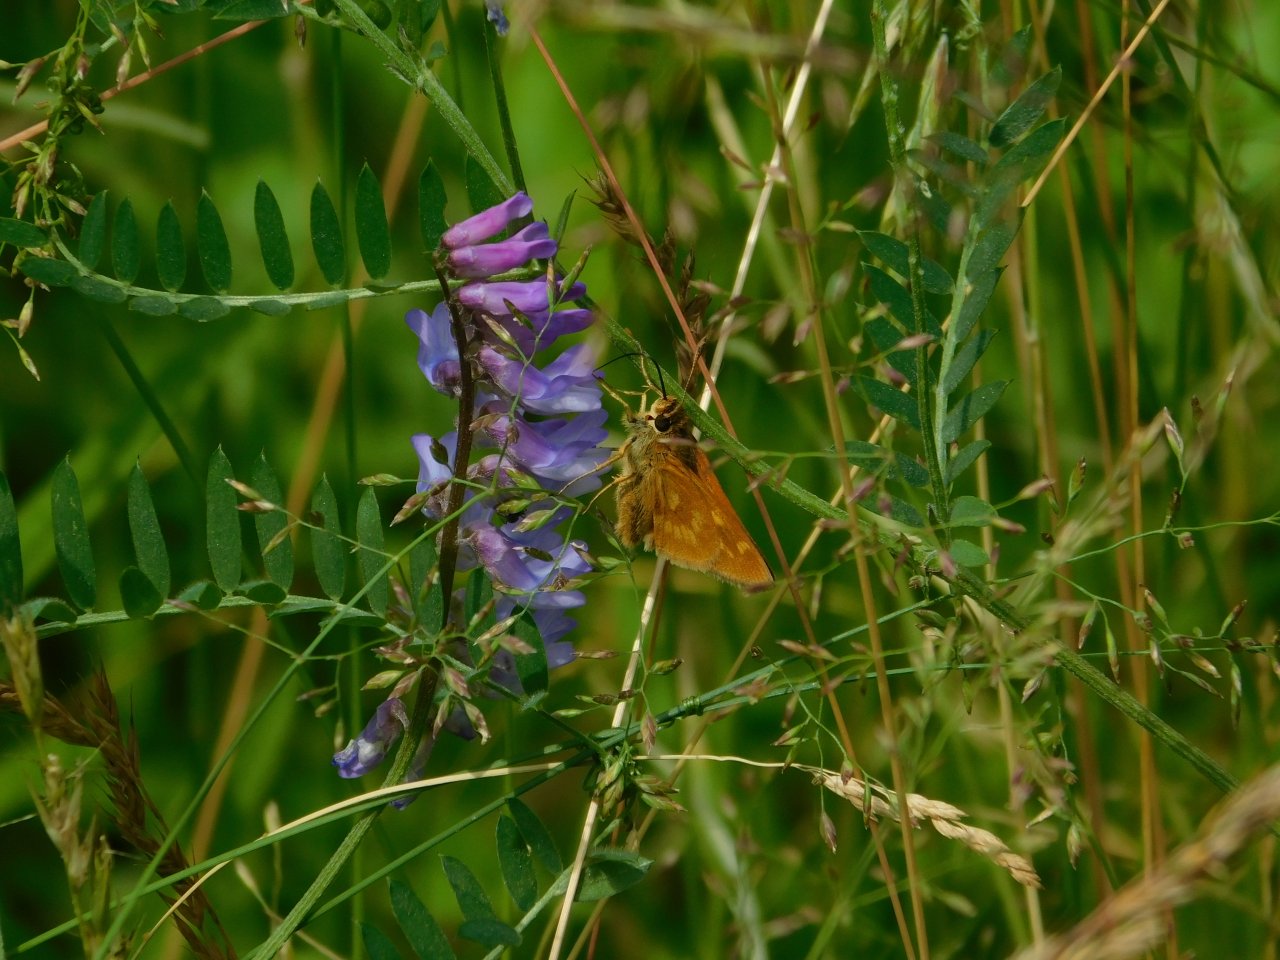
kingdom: Animalia
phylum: Arthropoda
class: Insecta
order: Lepidoptera
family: Hesperiidae
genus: Polites
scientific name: Polites
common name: Long Dash Skipper
